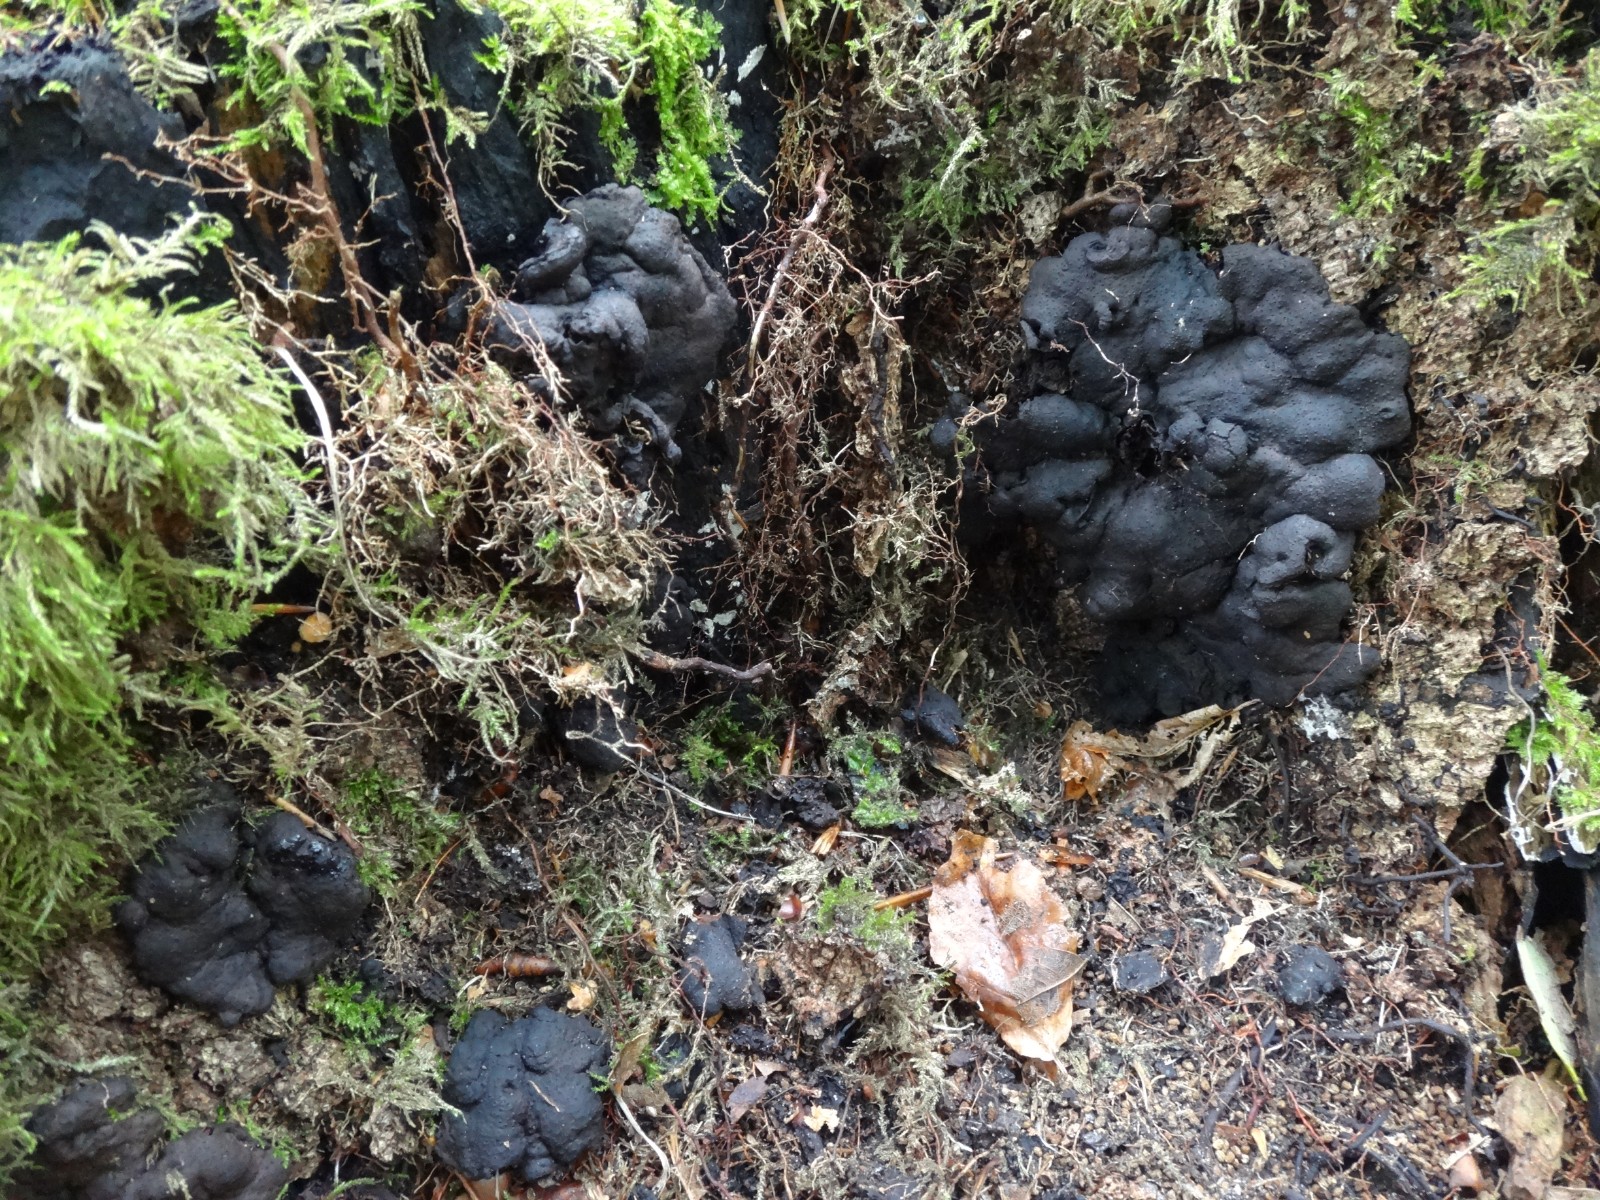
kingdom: Fungi
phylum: Ascomycota
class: Sordariomycetes
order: Xylariales
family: Xylariaceae
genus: Kretzschmaria
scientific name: Kretzschmaria deusta
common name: stor kulsvamp
